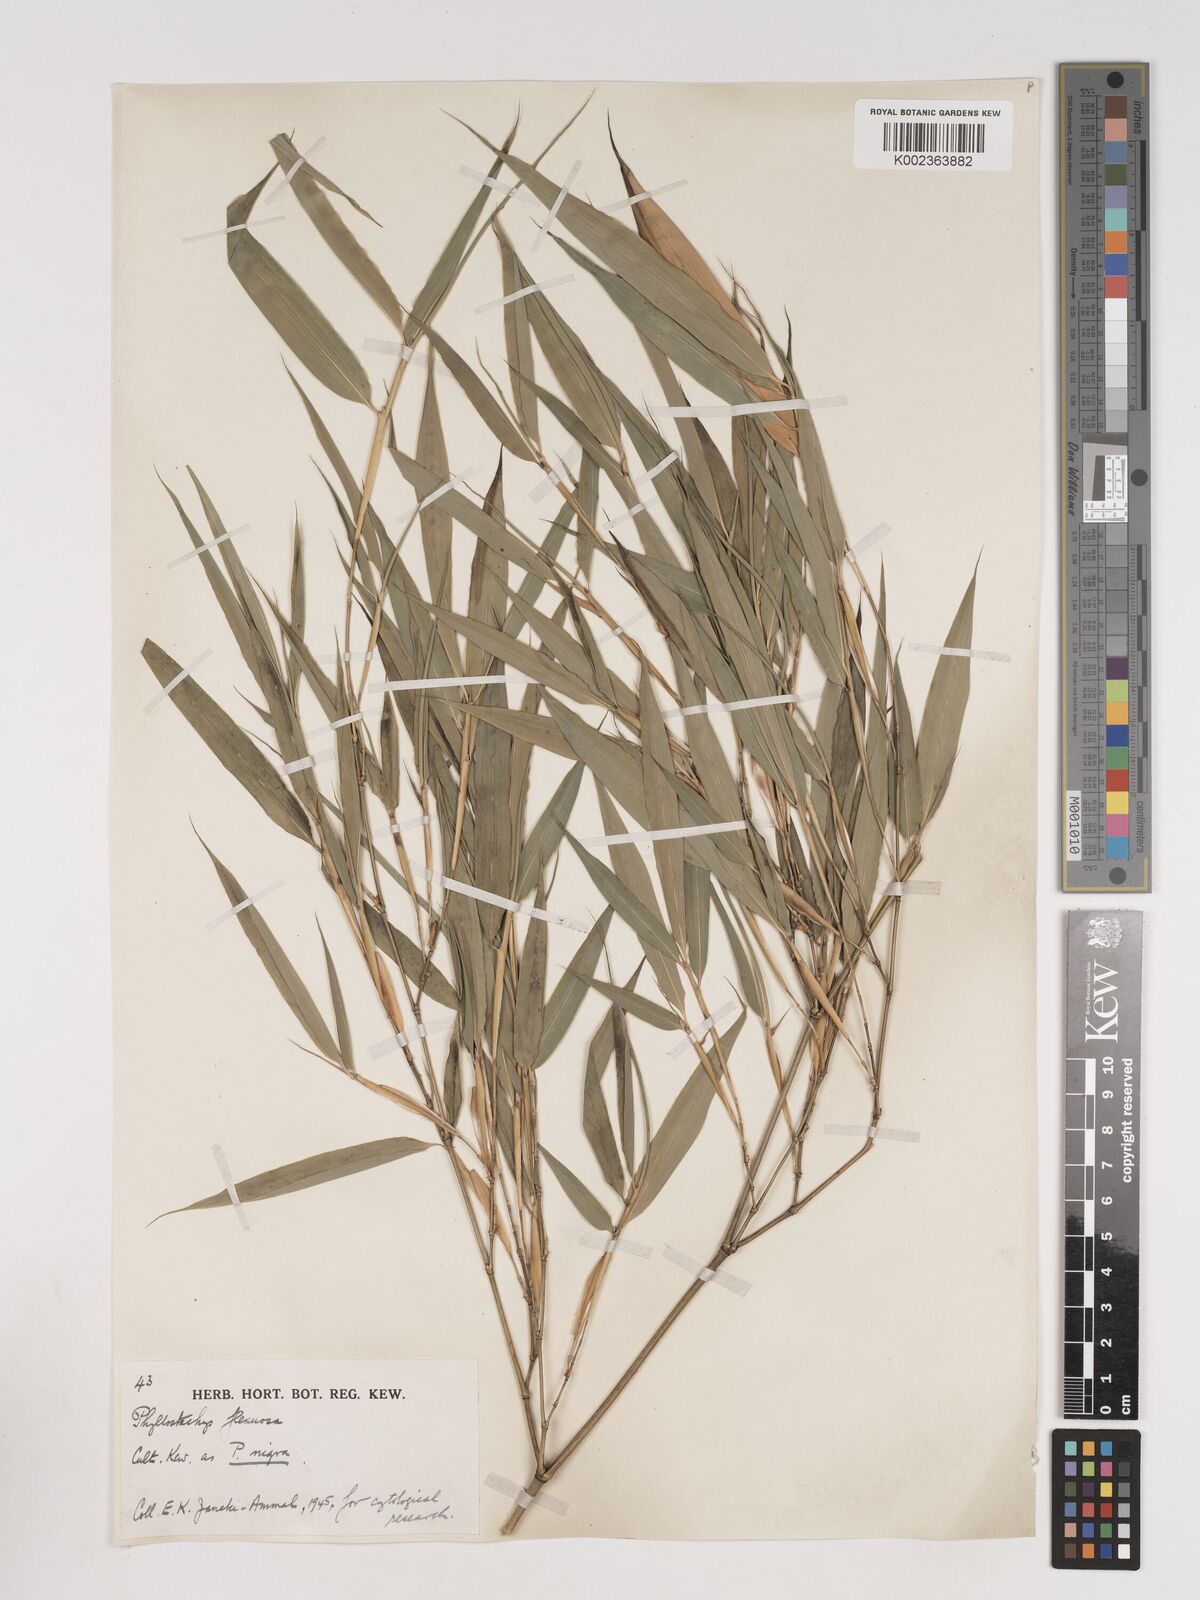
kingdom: Plantae
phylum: Tracheophyta
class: Liliopsida
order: Poales
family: Poaceae
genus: Phyllostachys
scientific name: Phyllostachys flexuosa
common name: Drooping timber bamboo
